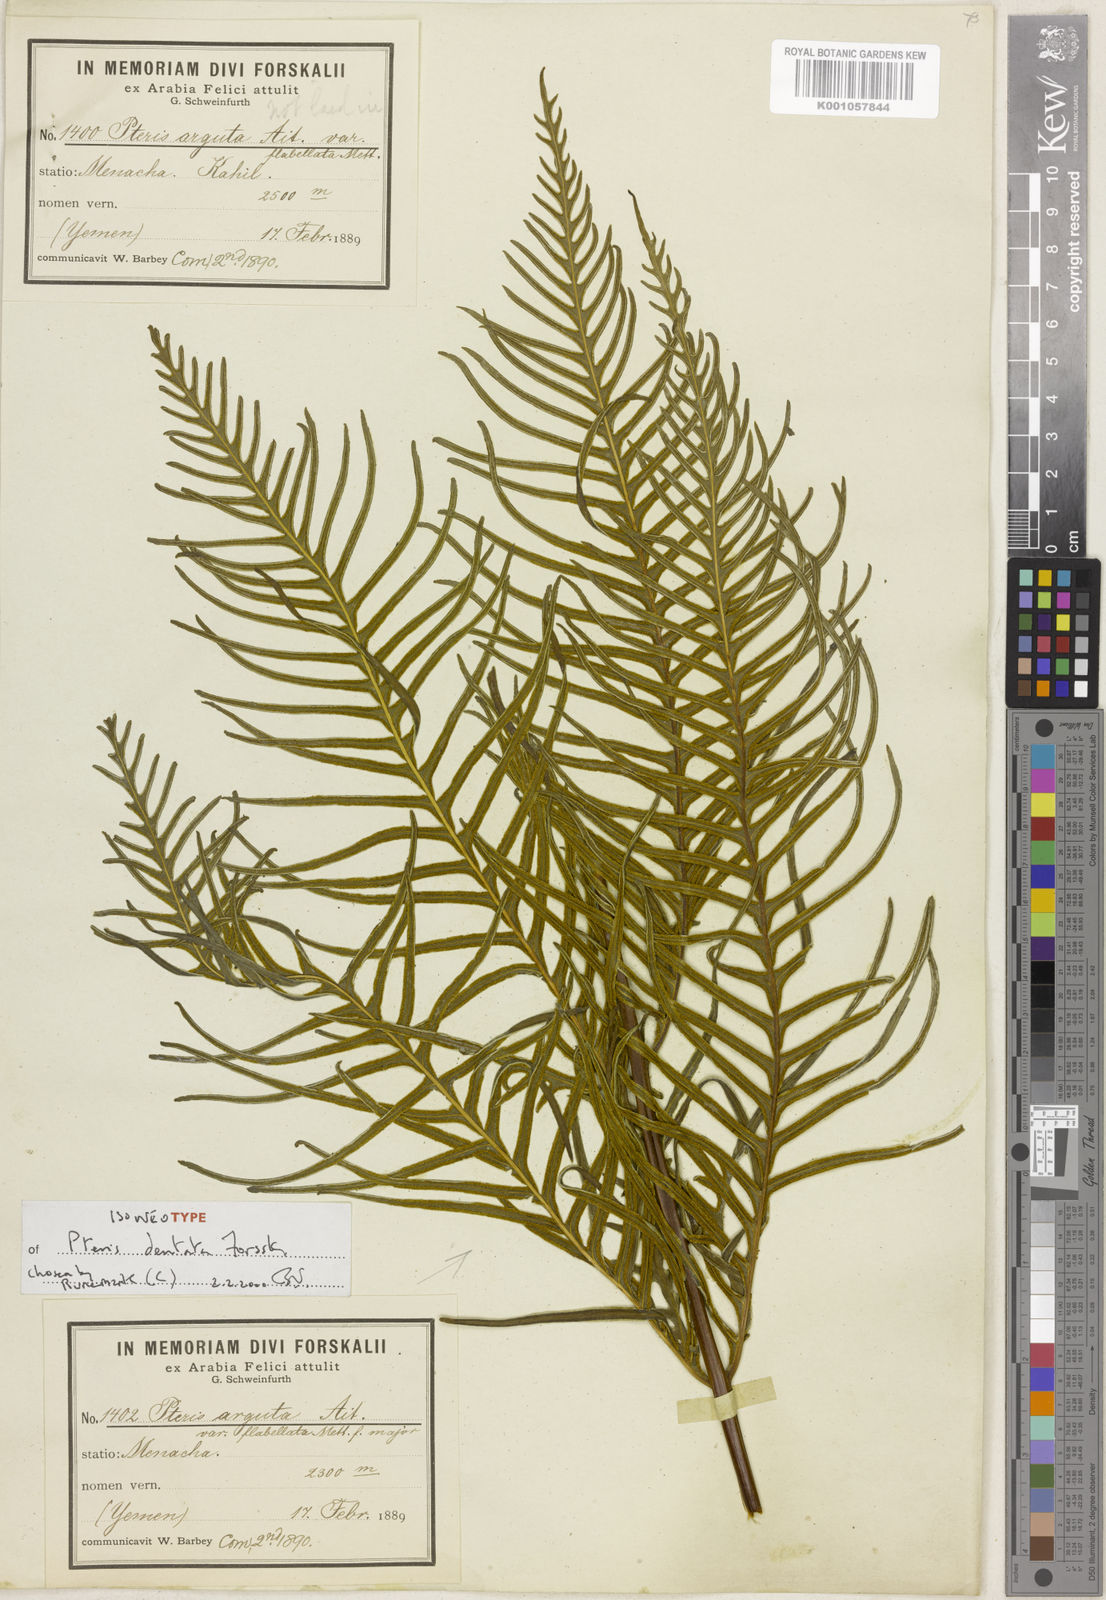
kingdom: Plantae
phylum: Tracheophyta
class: Polypodiopsida
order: Polypodiales
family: Pteridaceae
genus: Pteris
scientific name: Pteris dentata
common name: Toothed brake
